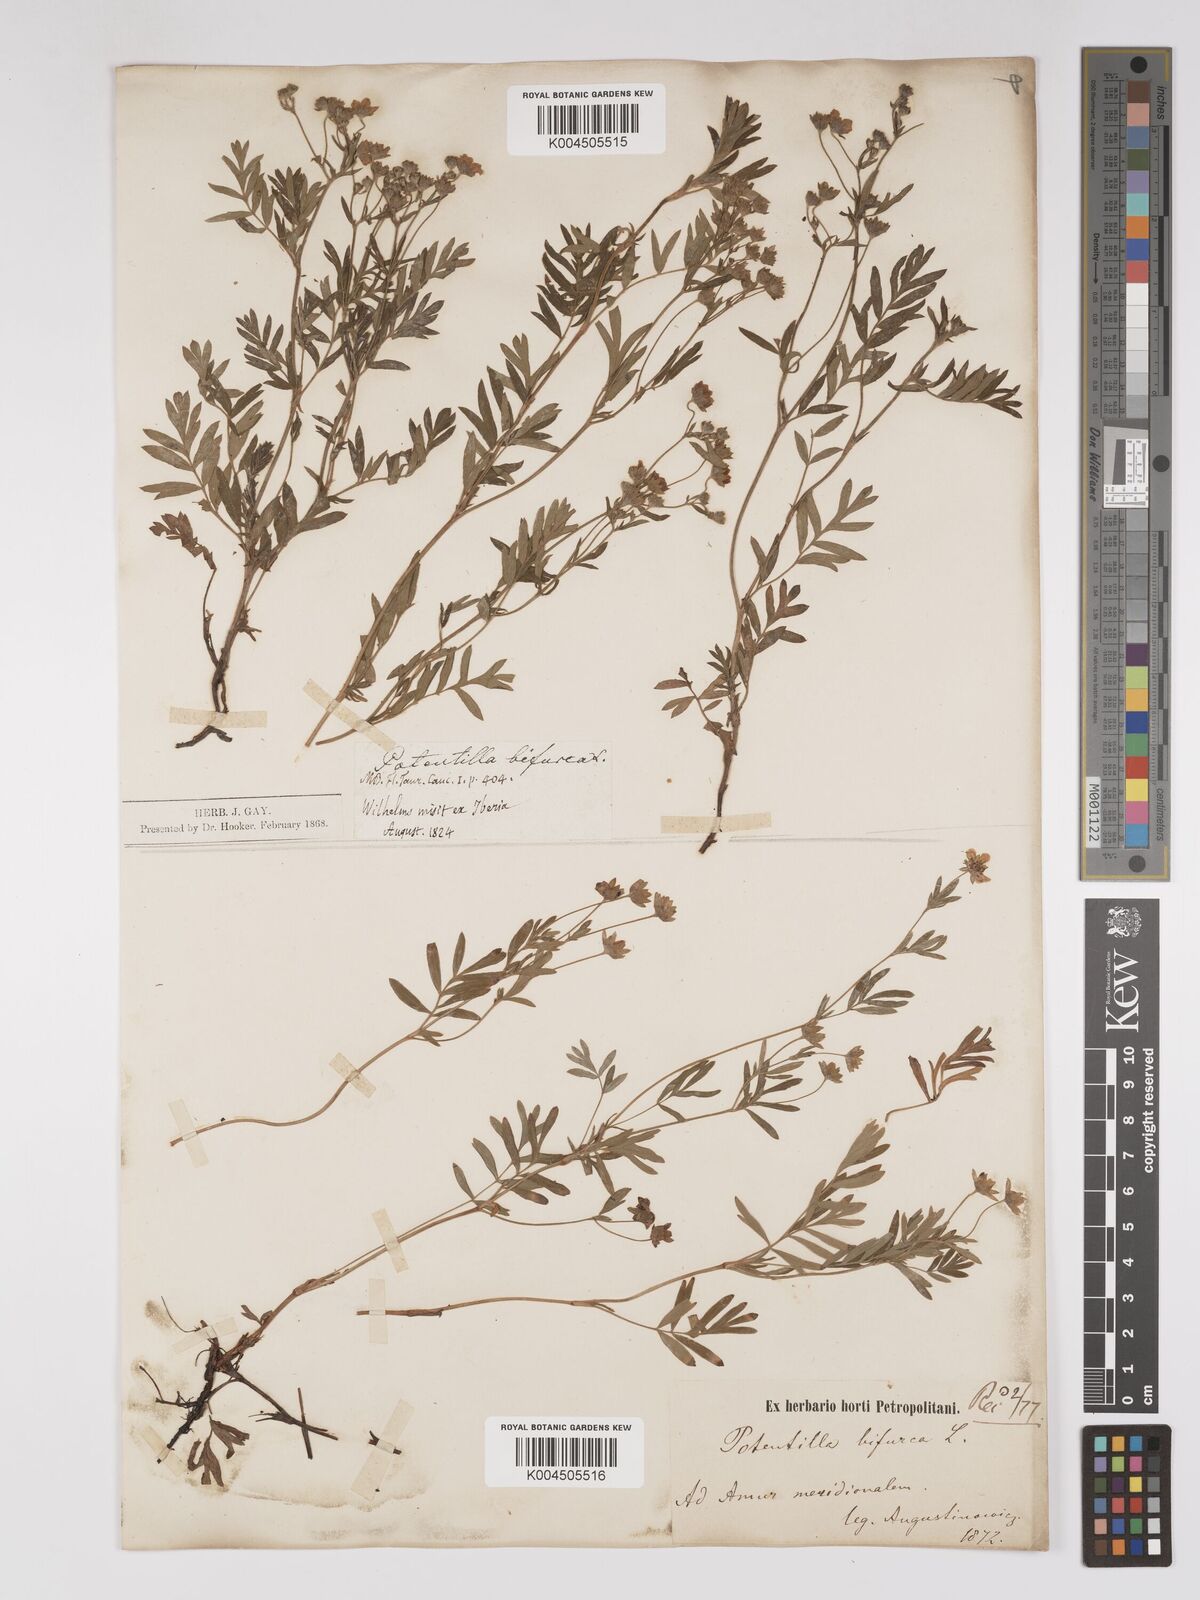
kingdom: Plantae
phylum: Tracheophyta
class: Magnoliopsida
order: Rosales
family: Rosaceae
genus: Sibbaldianthe
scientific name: Sibbaldianthe bifurca
